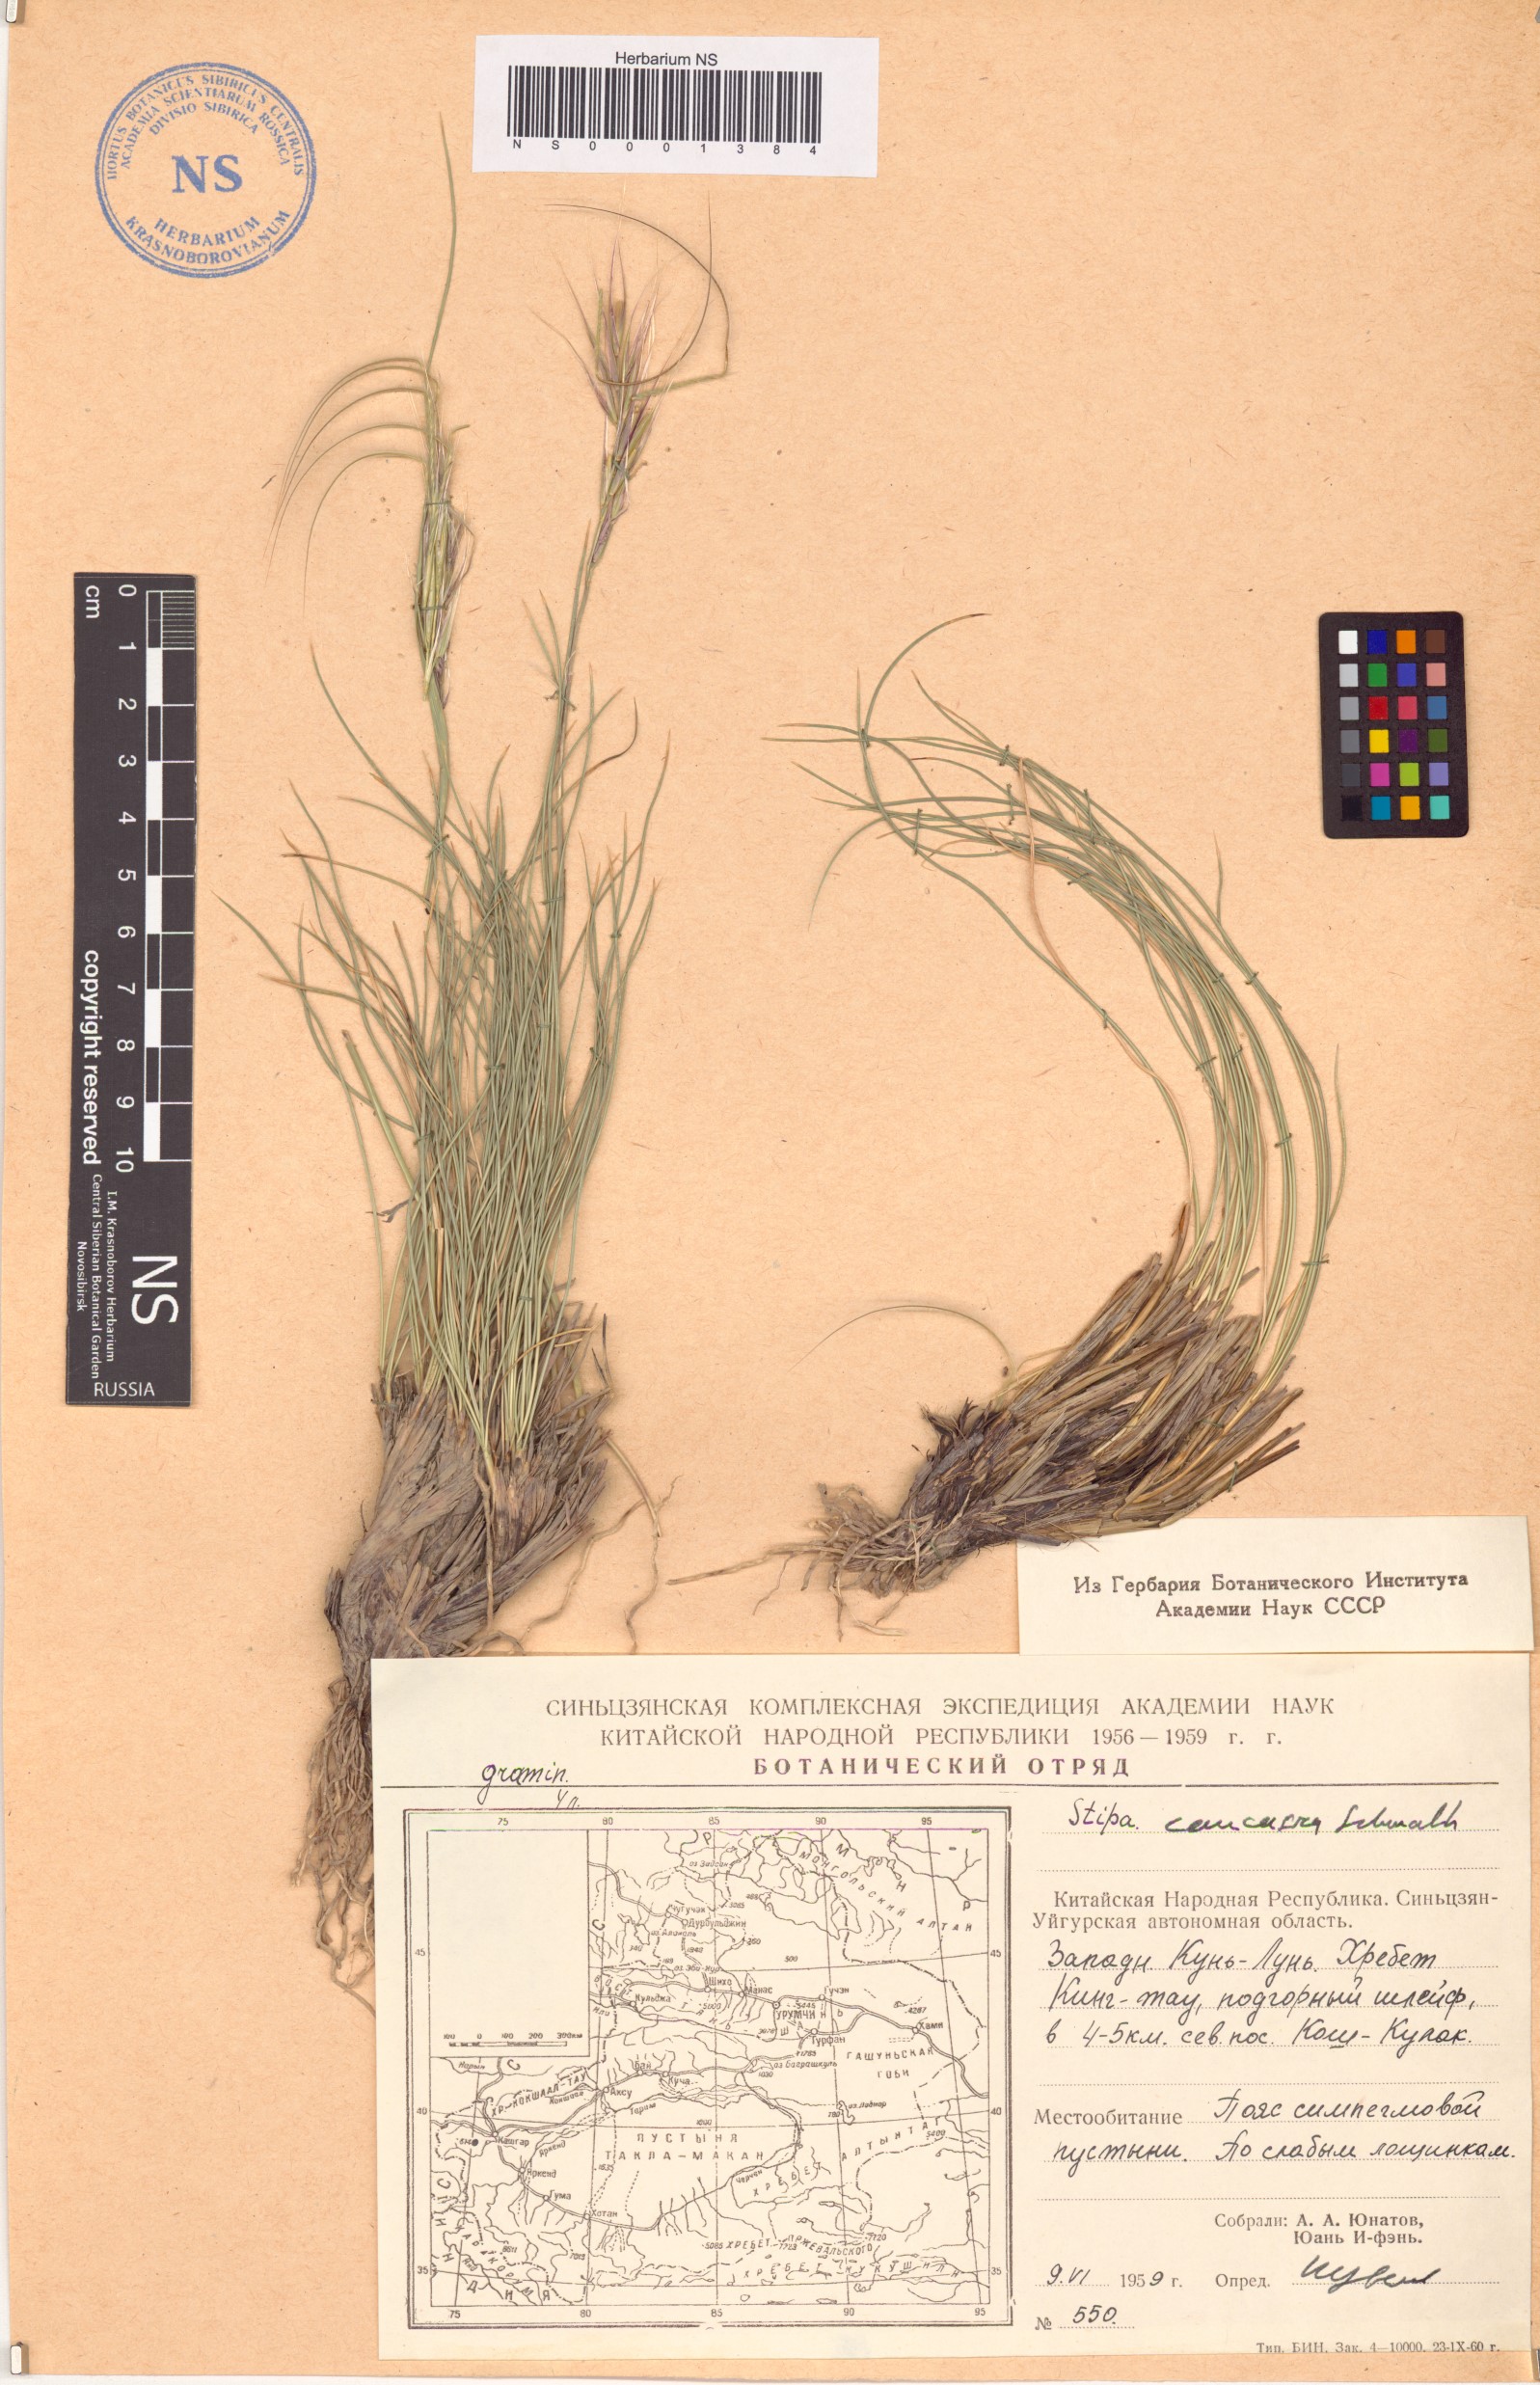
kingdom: Plantae
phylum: Tracheophyta
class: Liliopsida
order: Poales
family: Poaceae
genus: Stipa
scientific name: Stipa caucasica
